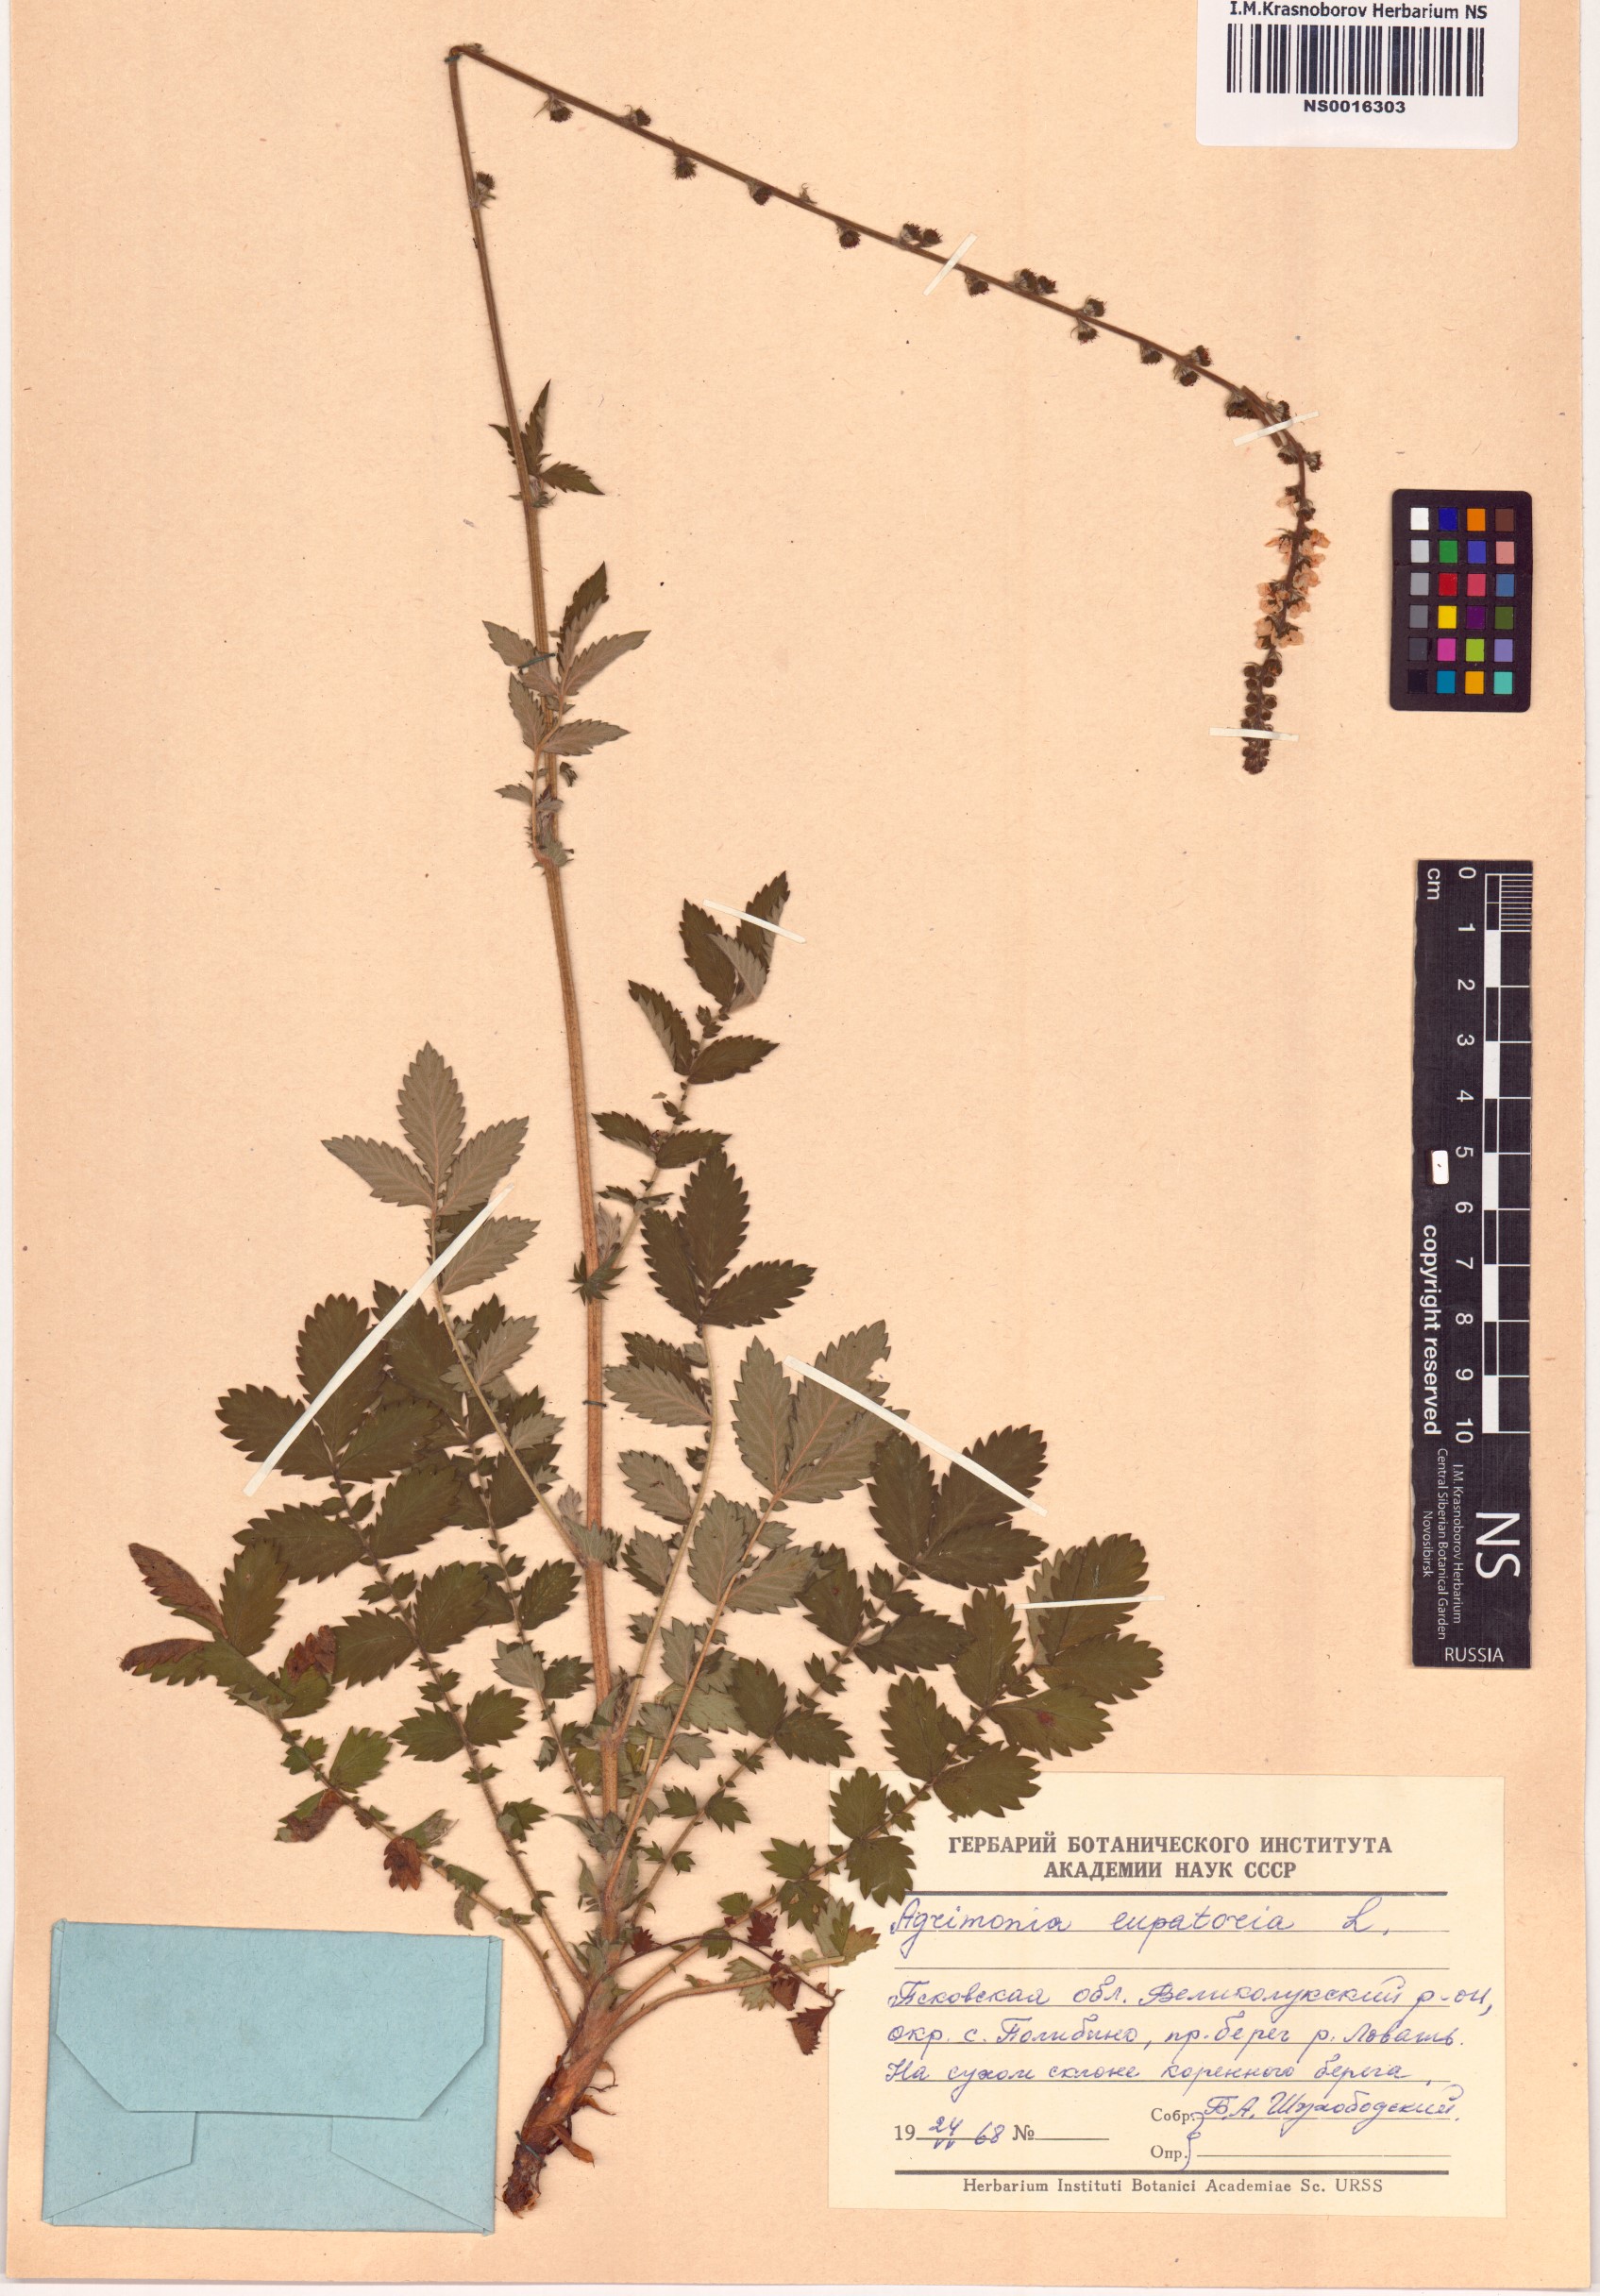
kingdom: Plantae
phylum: Tracheophyta
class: Magnoliopsida
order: Rosales
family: Rosaceae
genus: Agrimonia
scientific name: Agrimonia eupatoria
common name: Agrimony
